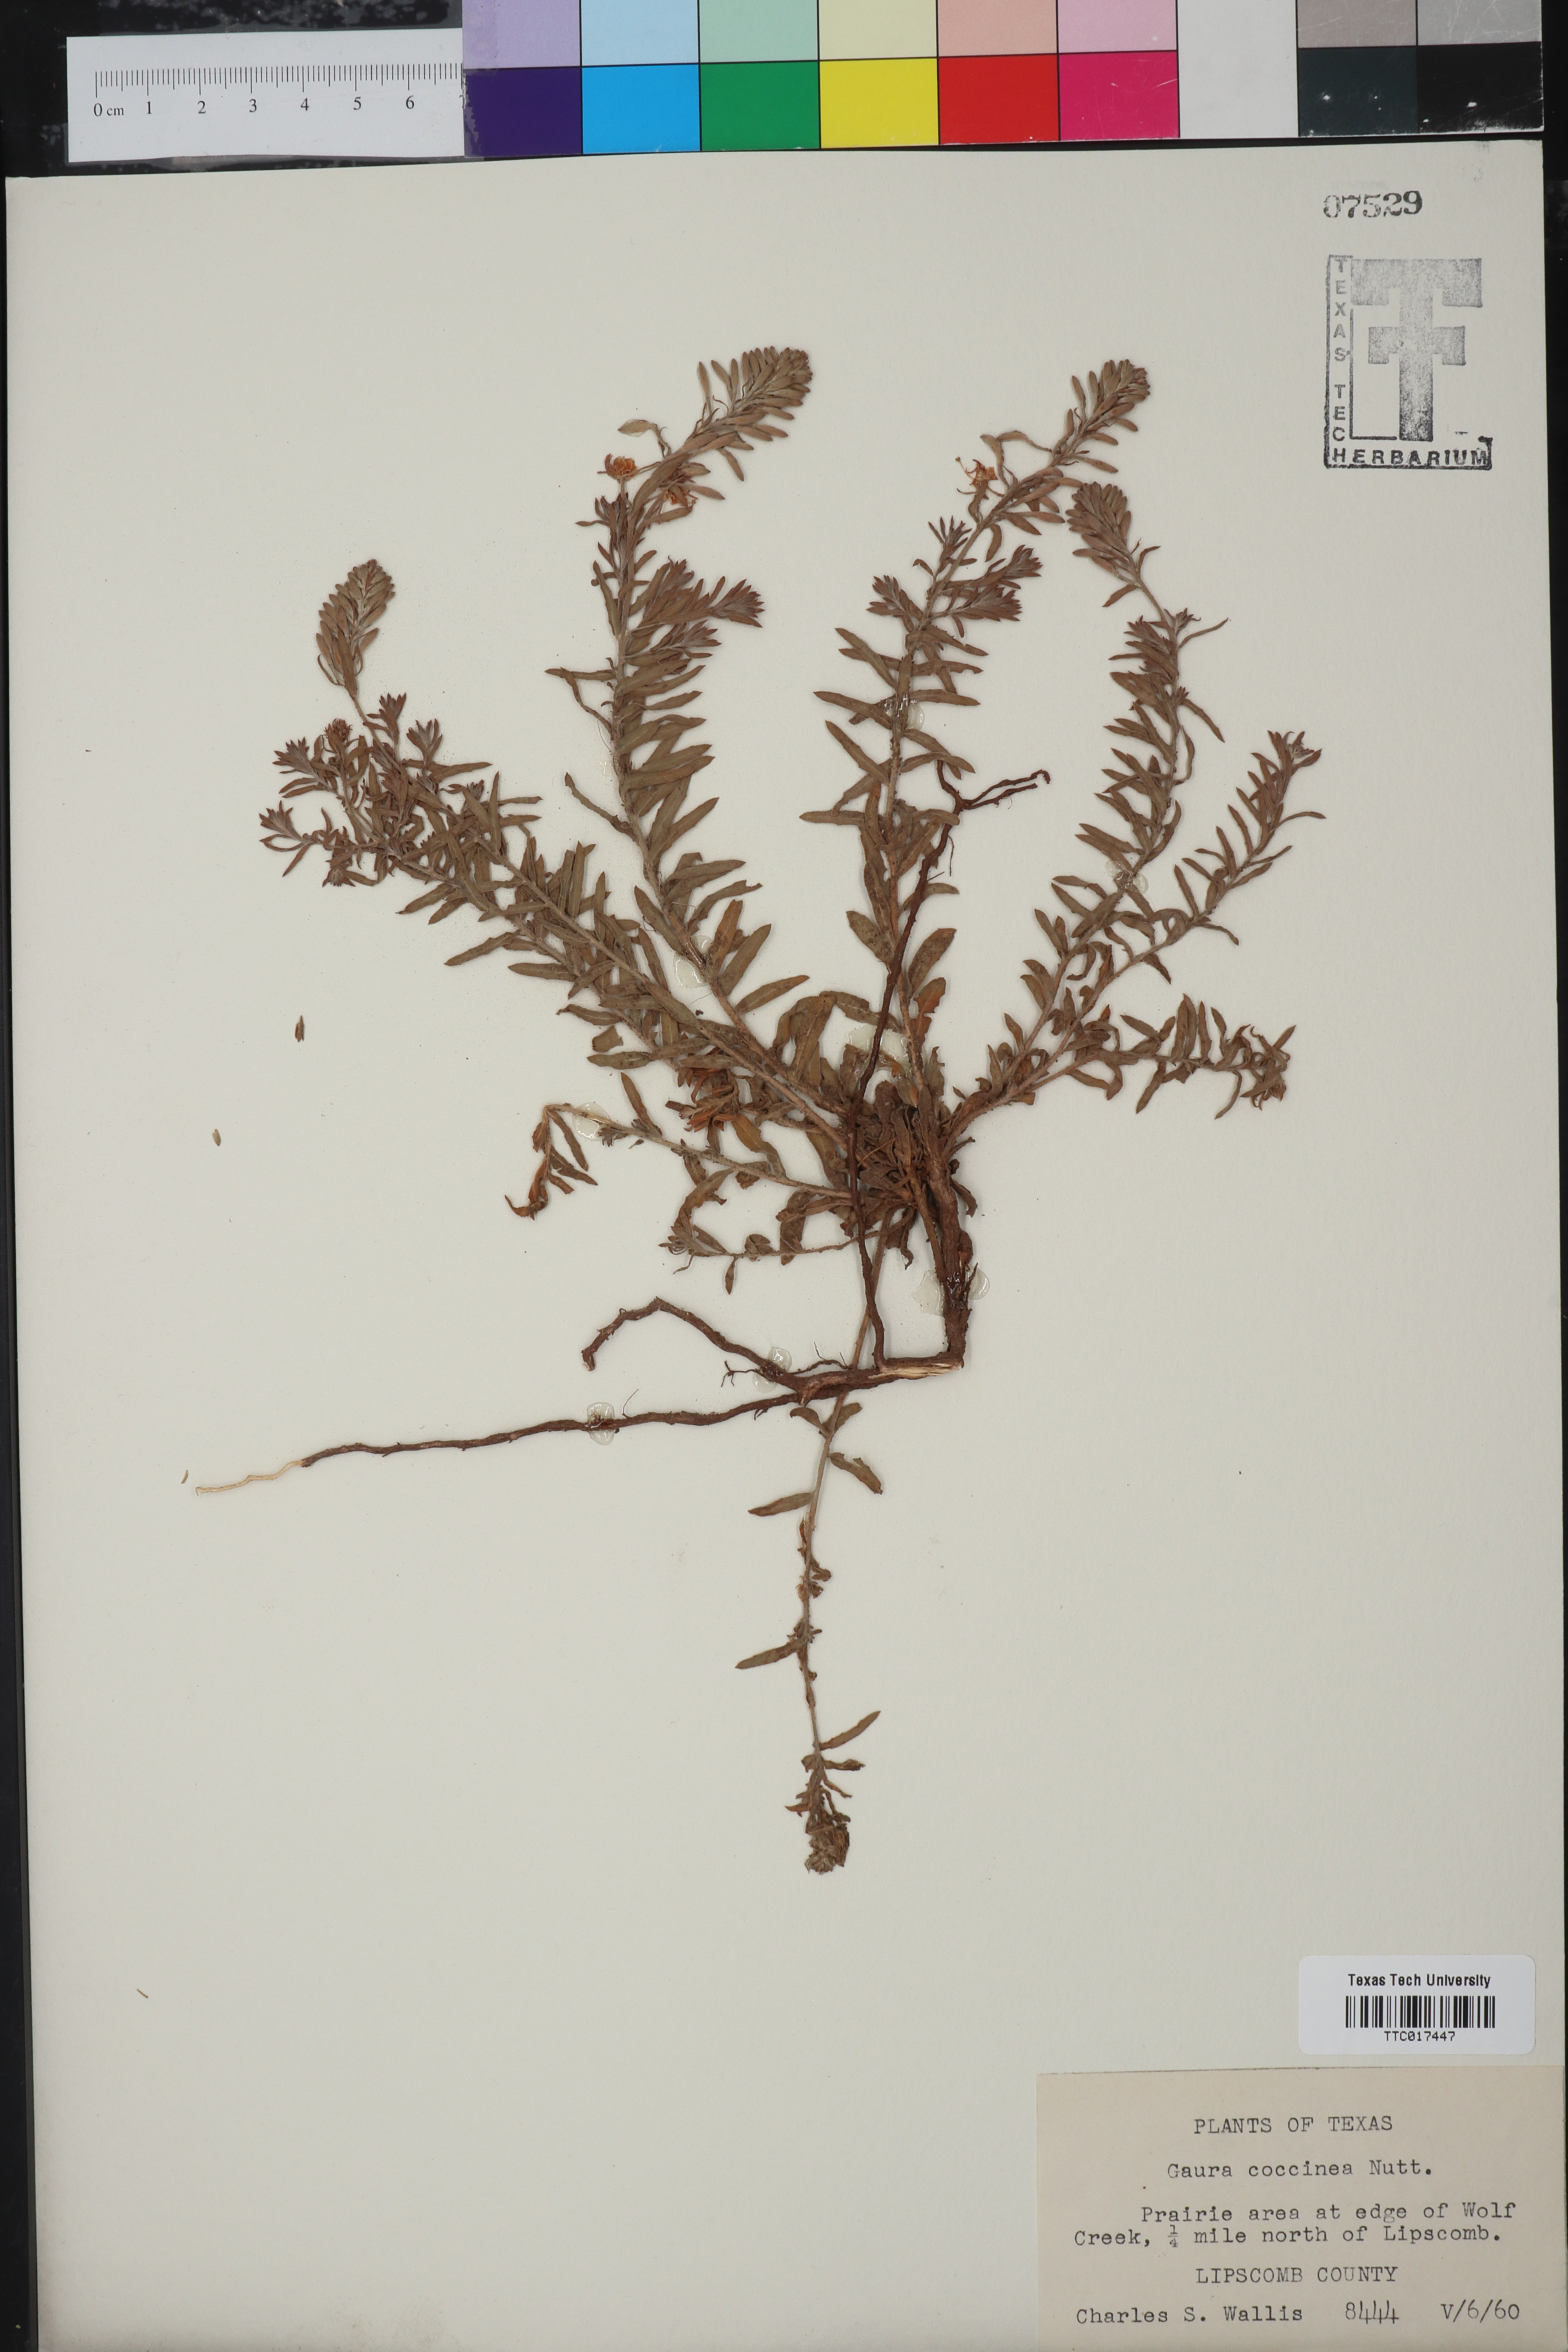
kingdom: Plantae
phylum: Tracheophyta
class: Magnoliopsida
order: Myrtales
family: Onagraceae
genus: Oenothera
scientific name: Oenothera suffrutescens
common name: Scarlet beeblossom
